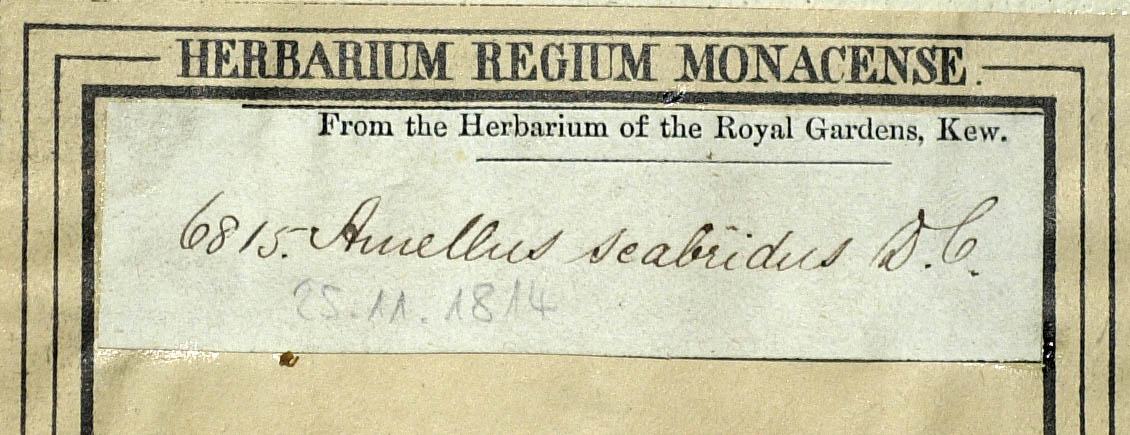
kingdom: Plantae
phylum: Tracheophyta
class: Magnoliopsida
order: Asterales
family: Asteraceae
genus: Amellus
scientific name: Amellus strigosus
